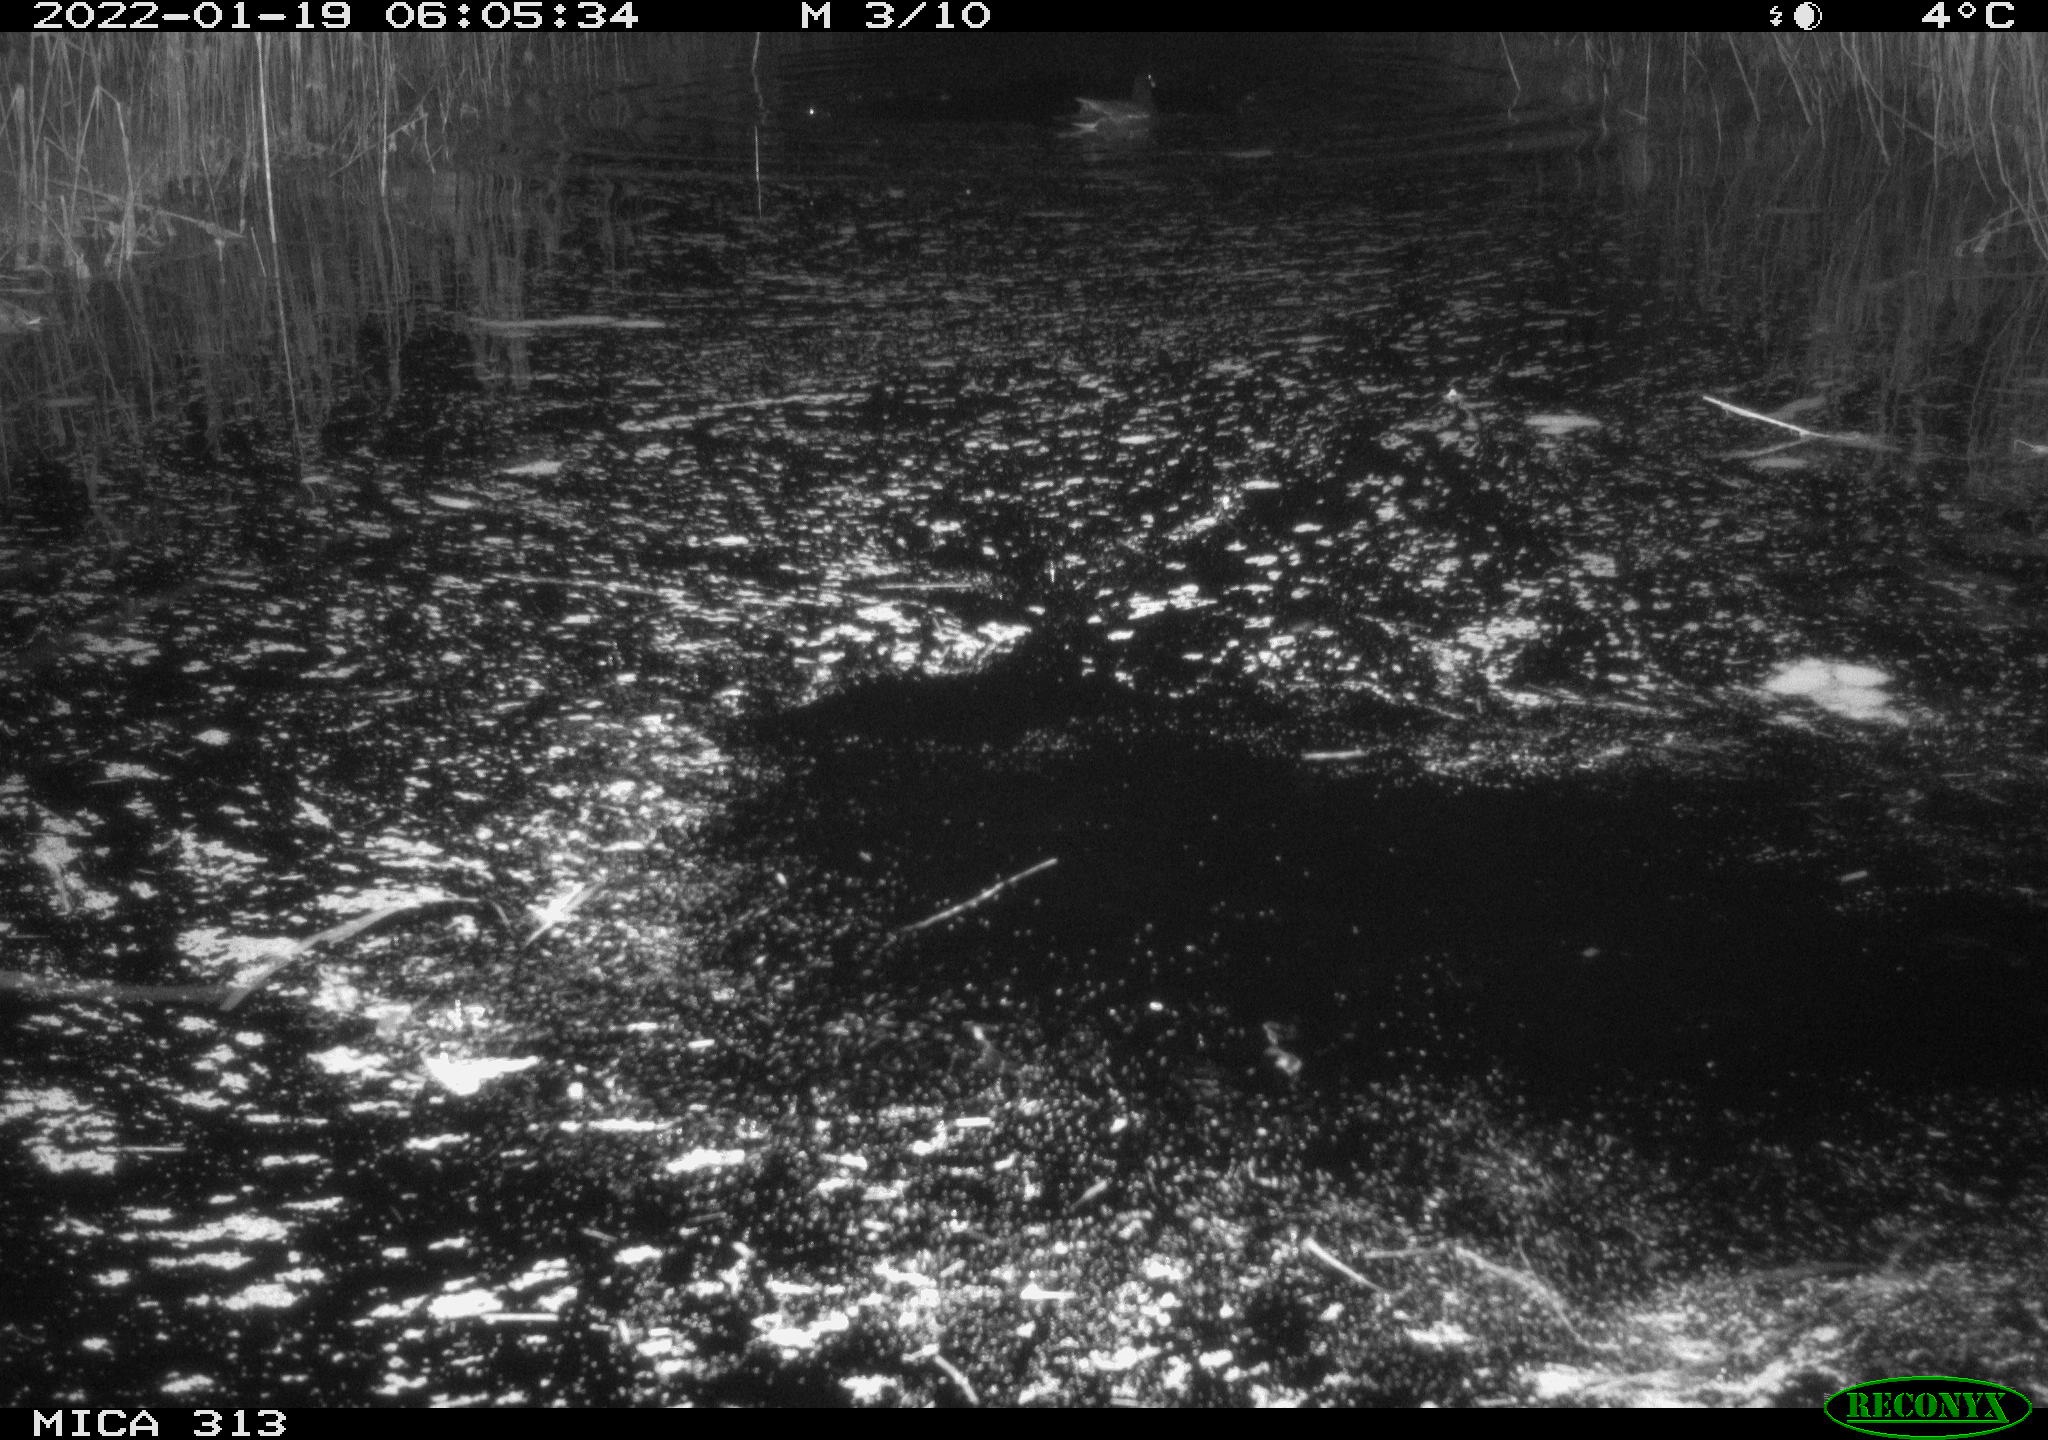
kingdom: Animalia
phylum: Chordata
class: Aves
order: Gruiformes
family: Rallidae
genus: Gallinula
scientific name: Gallinula chloropus
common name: Common moorhen
